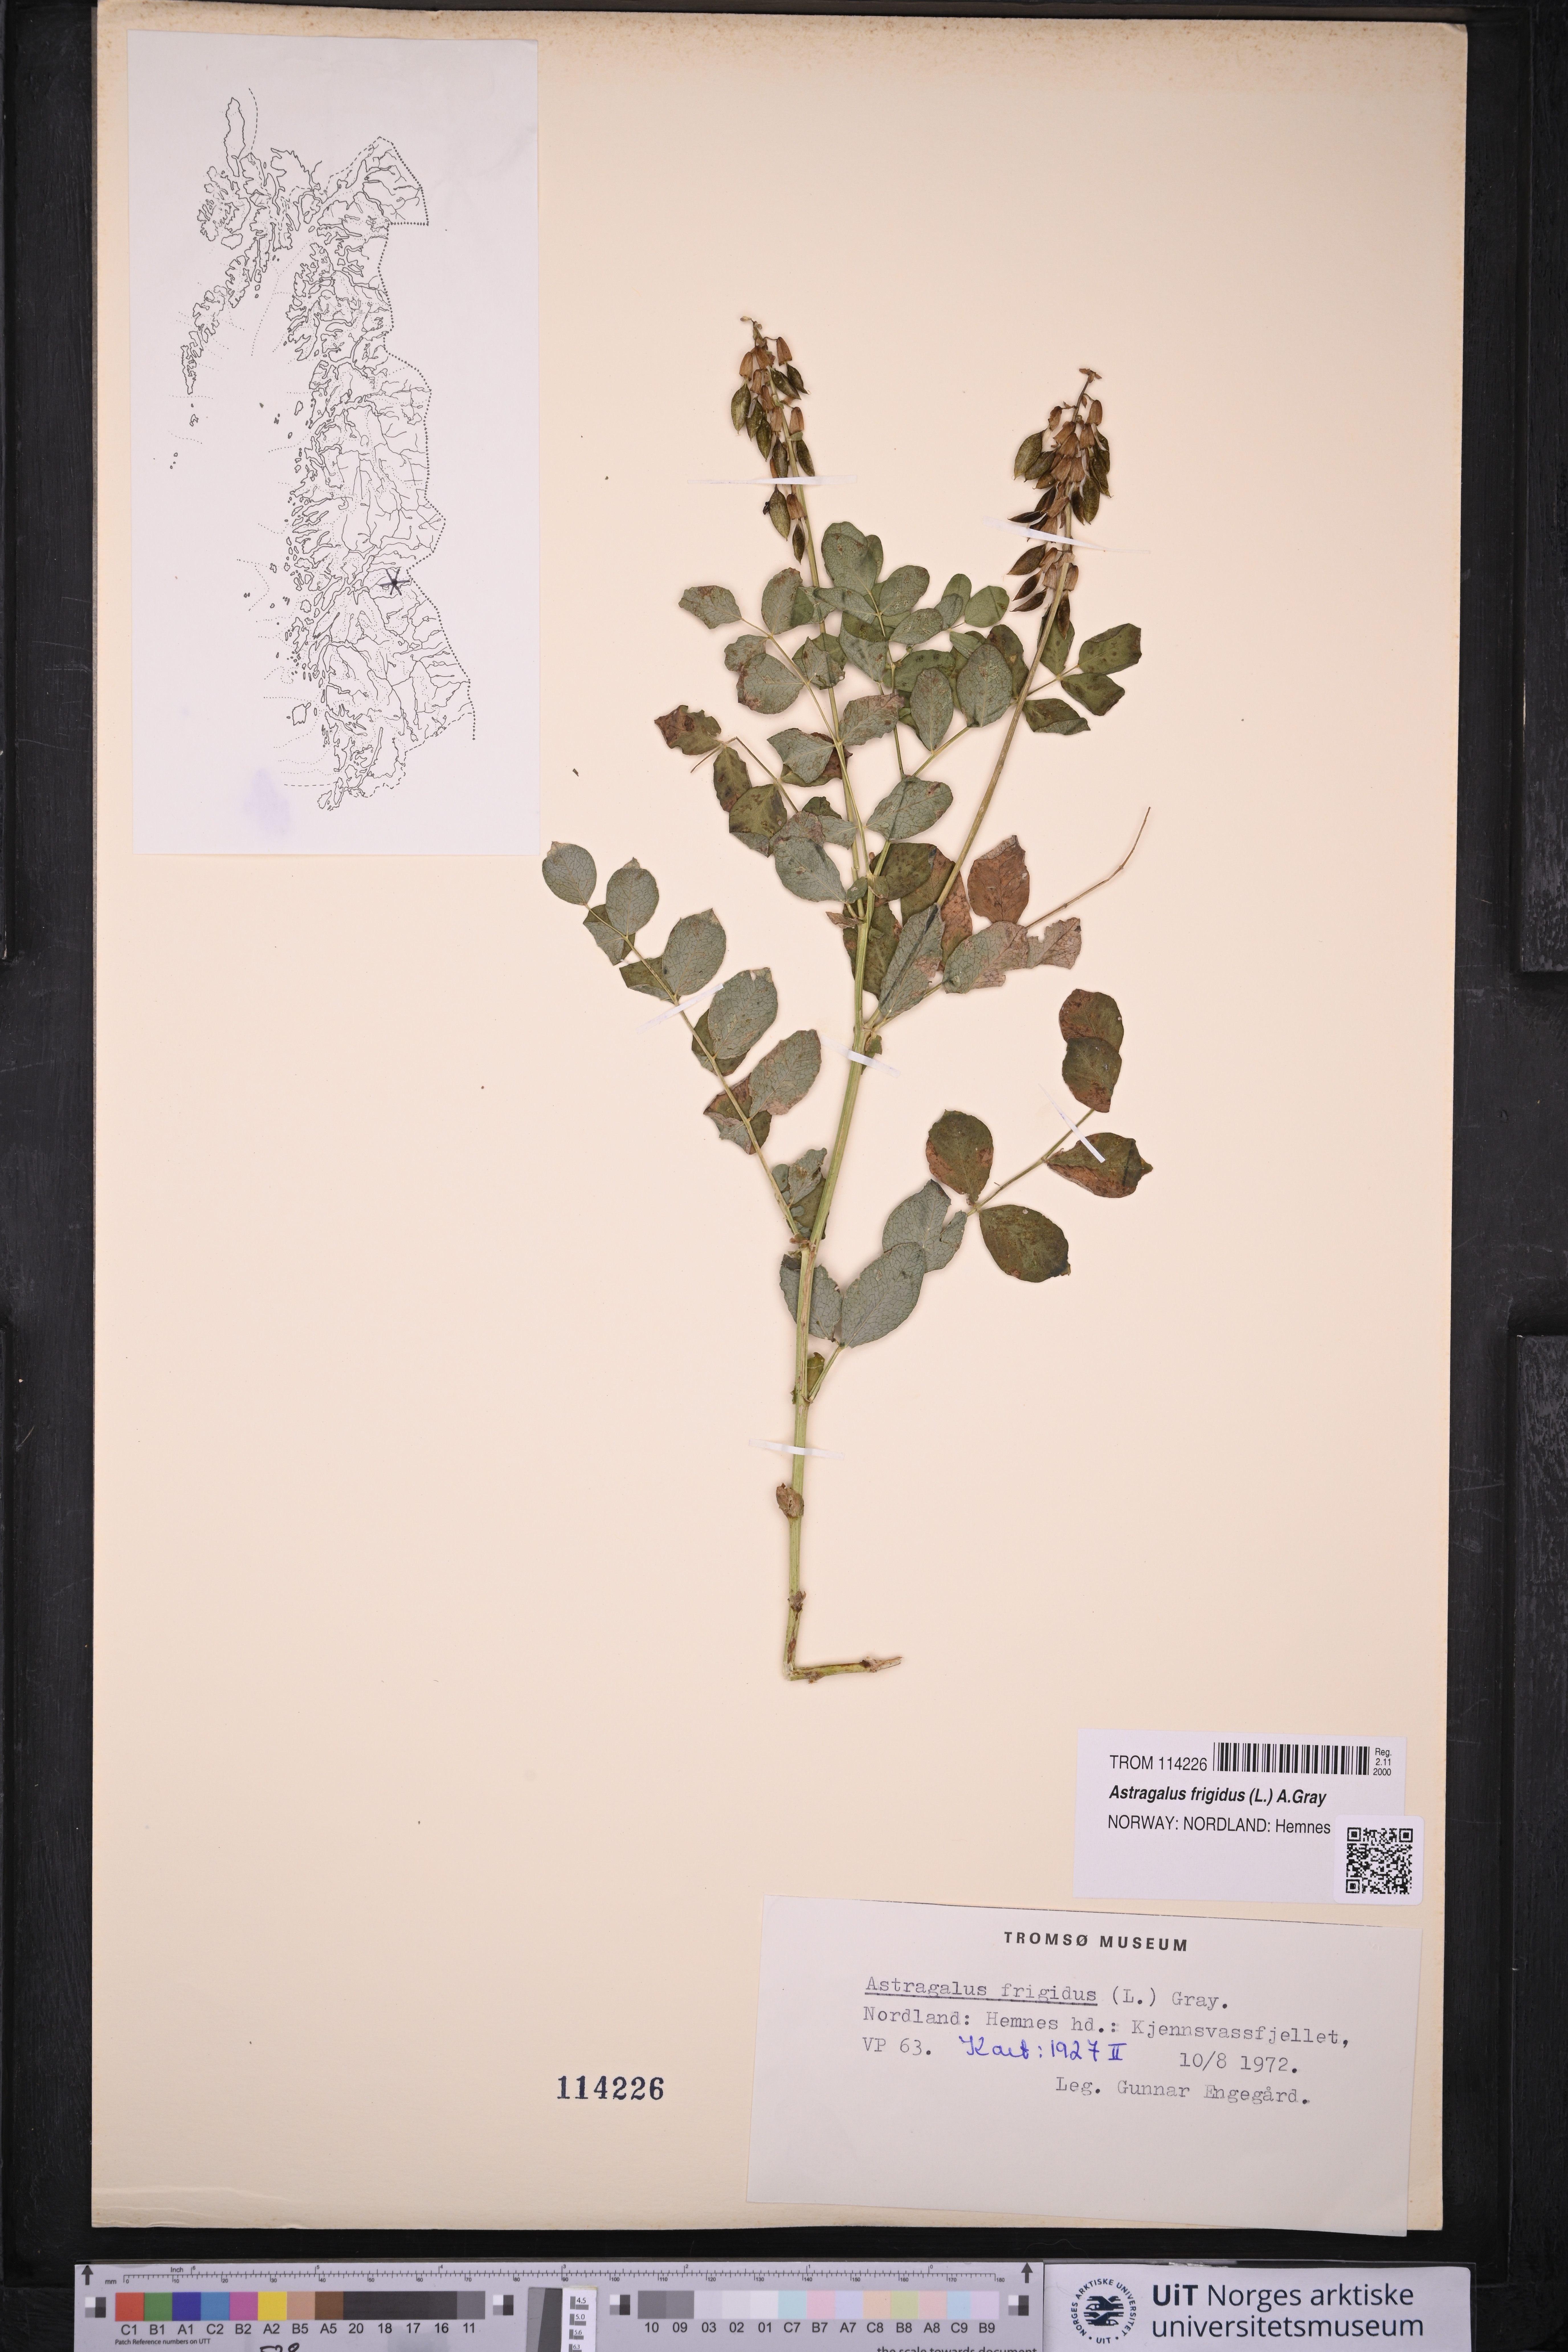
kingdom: Plantae
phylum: Tracheophyta
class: Magnoliopsida
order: Fabales
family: Fabaceae
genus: Astragalus
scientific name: Astragalus frigidus
